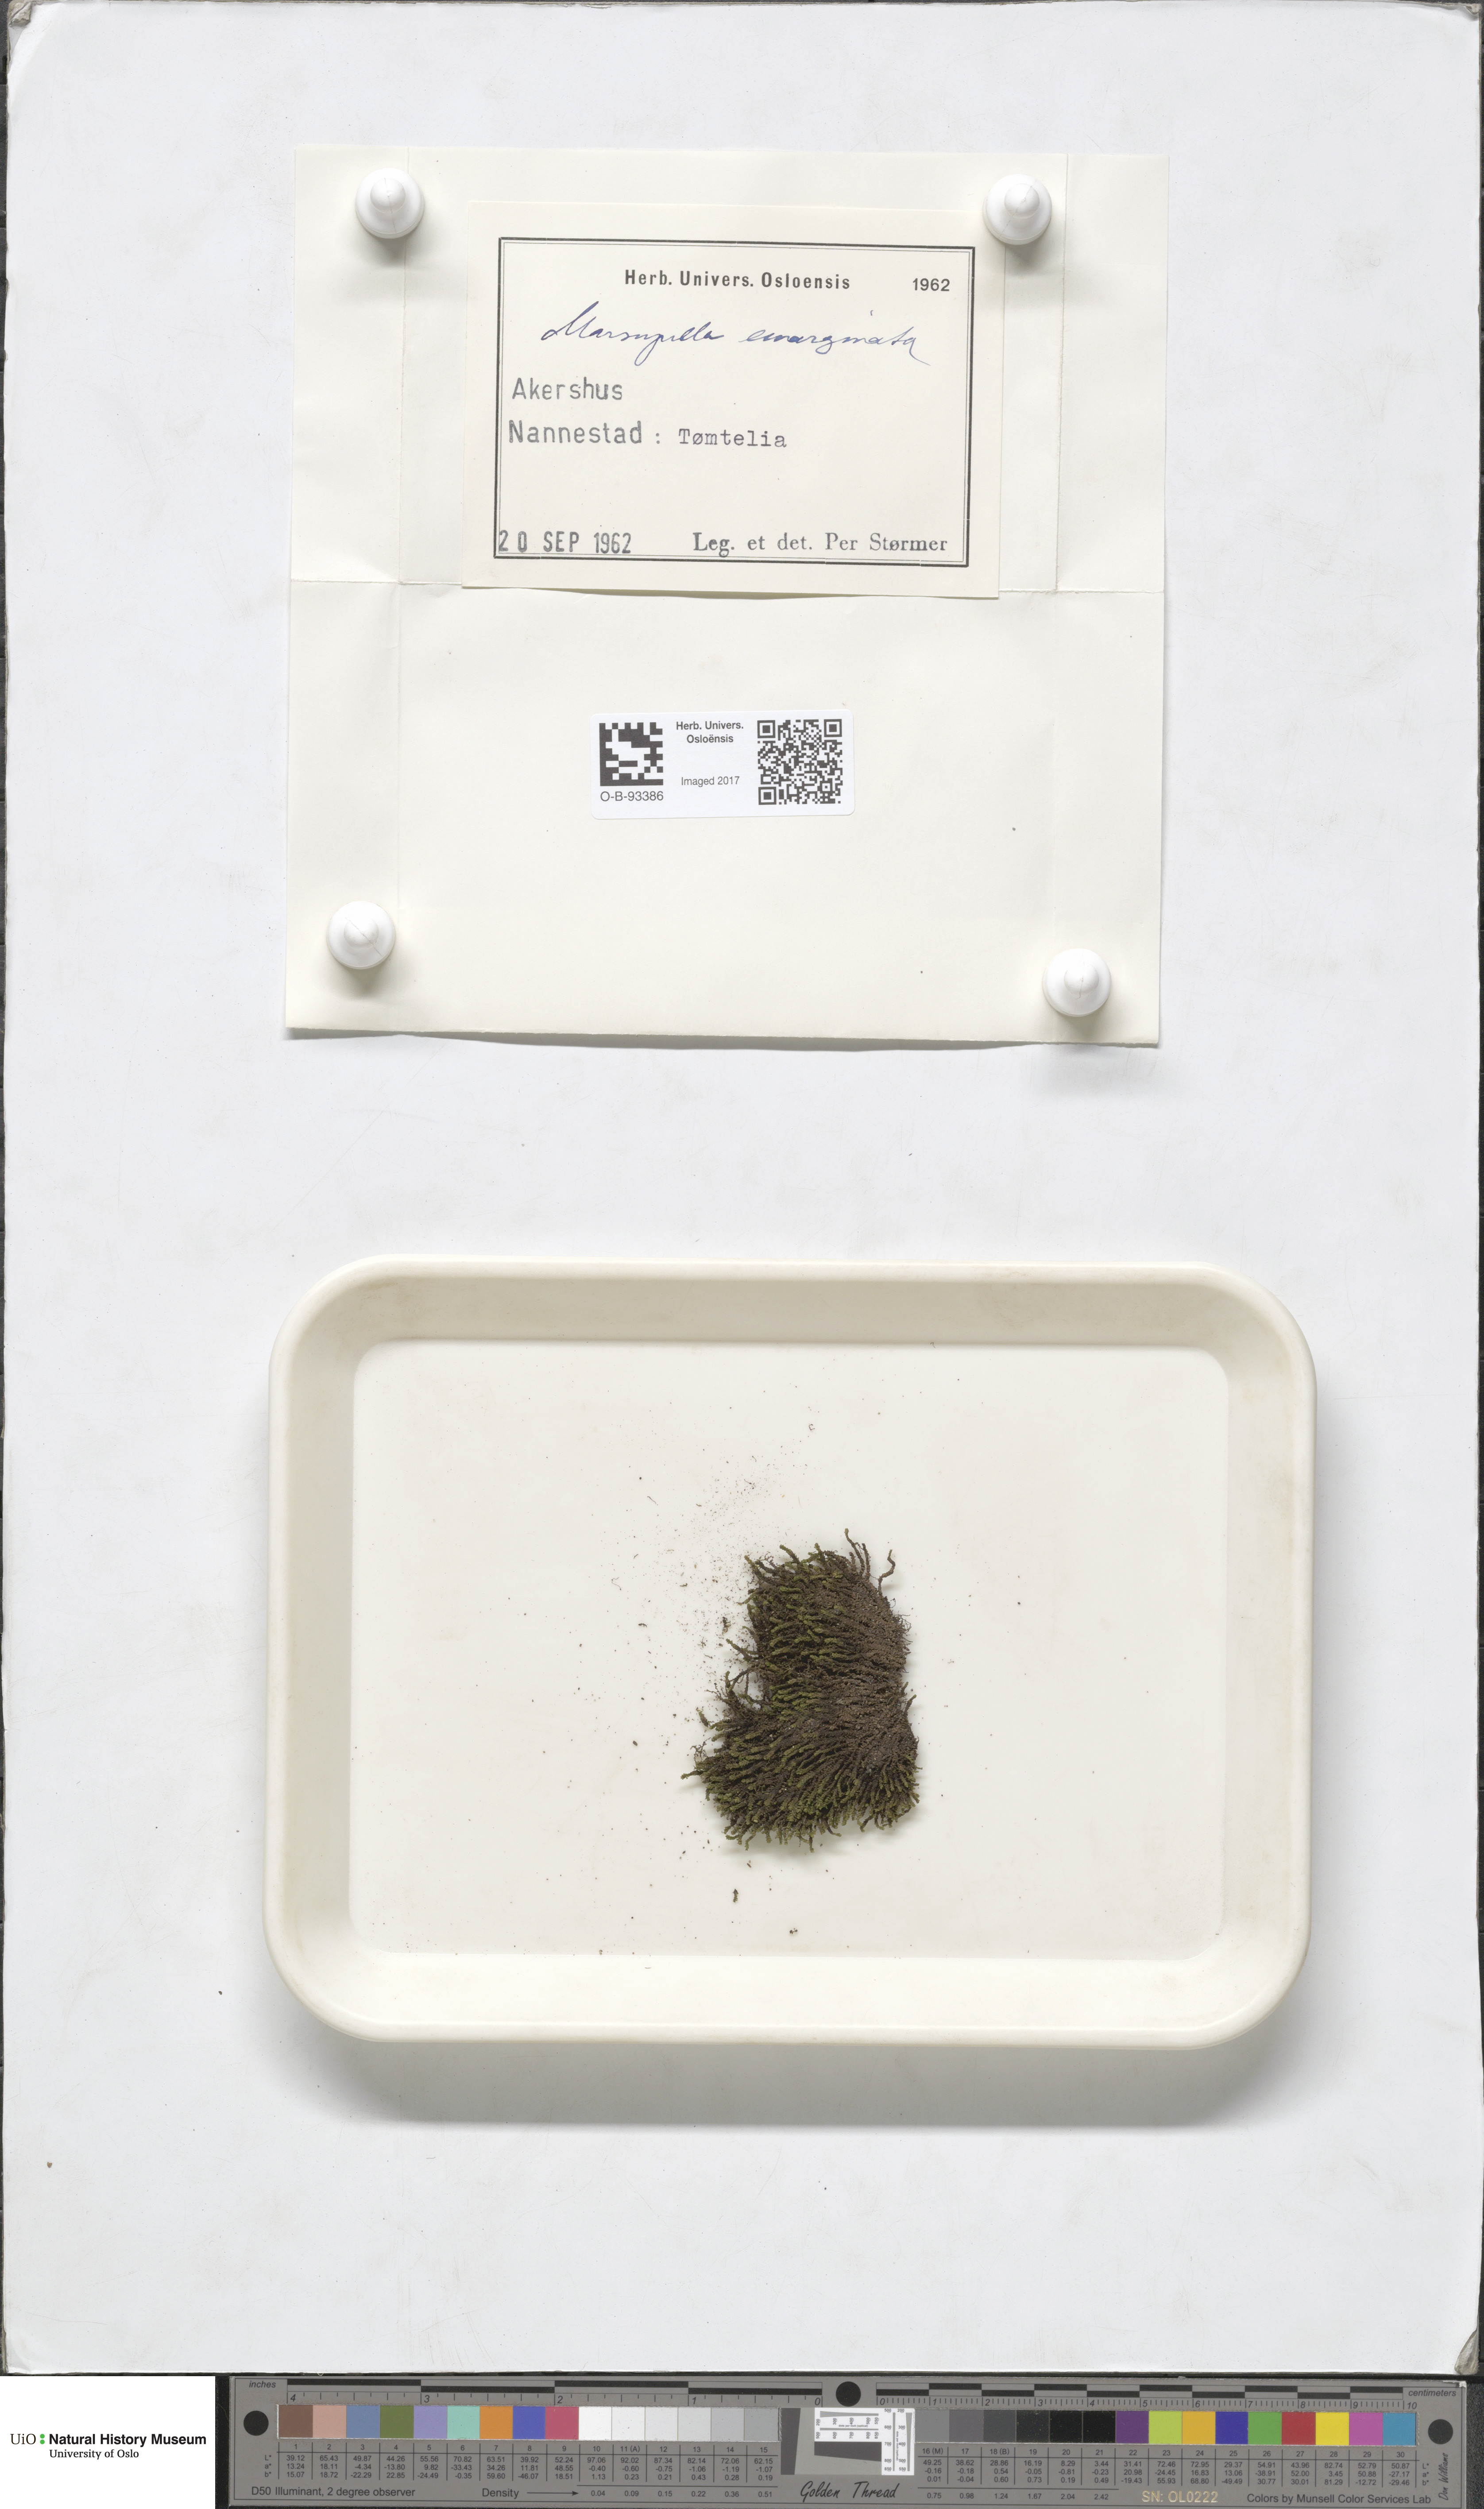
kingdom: Plantae
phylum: Marchantiophyta
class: Jungermanniopsida
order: Jungermanniales
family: Gymnomitriaceae
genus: Marsupella
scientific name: Marsupella emarginata
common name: Notched rustwort
